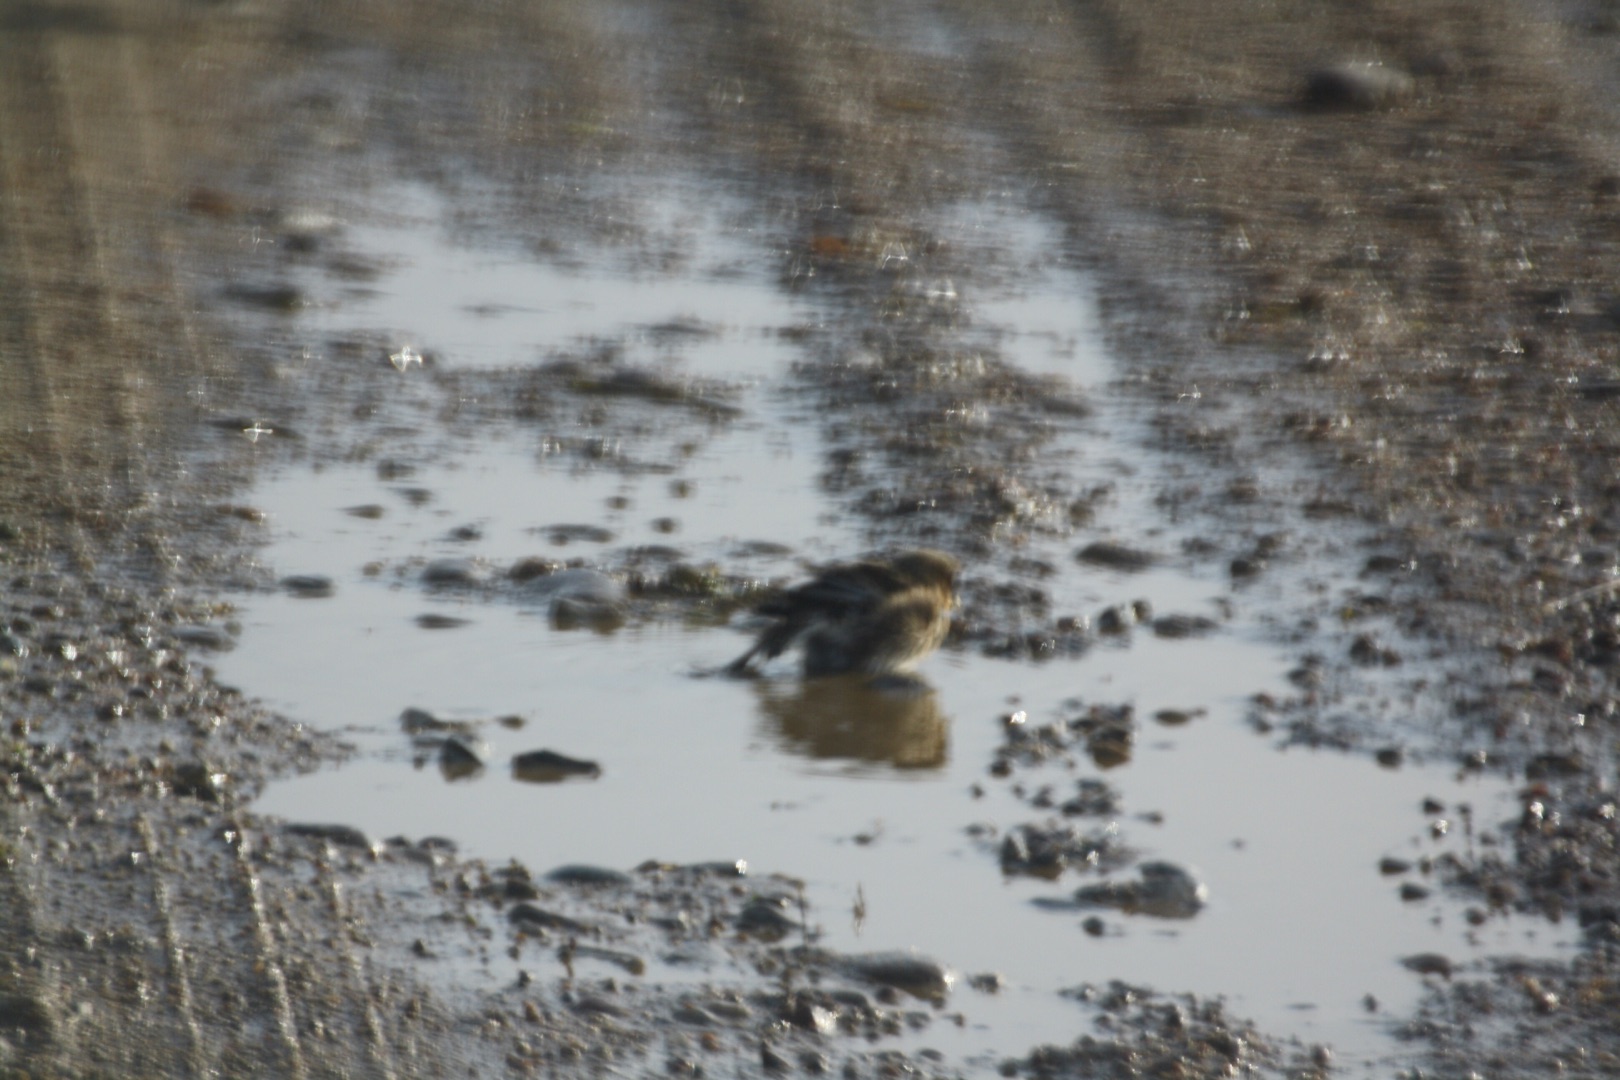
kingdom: Animalia
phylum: Chordata
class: Aves
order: Passeriformes
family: Fringillidae
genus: Linaria
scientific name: Linaria flavirostris
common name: Bjergirisk
